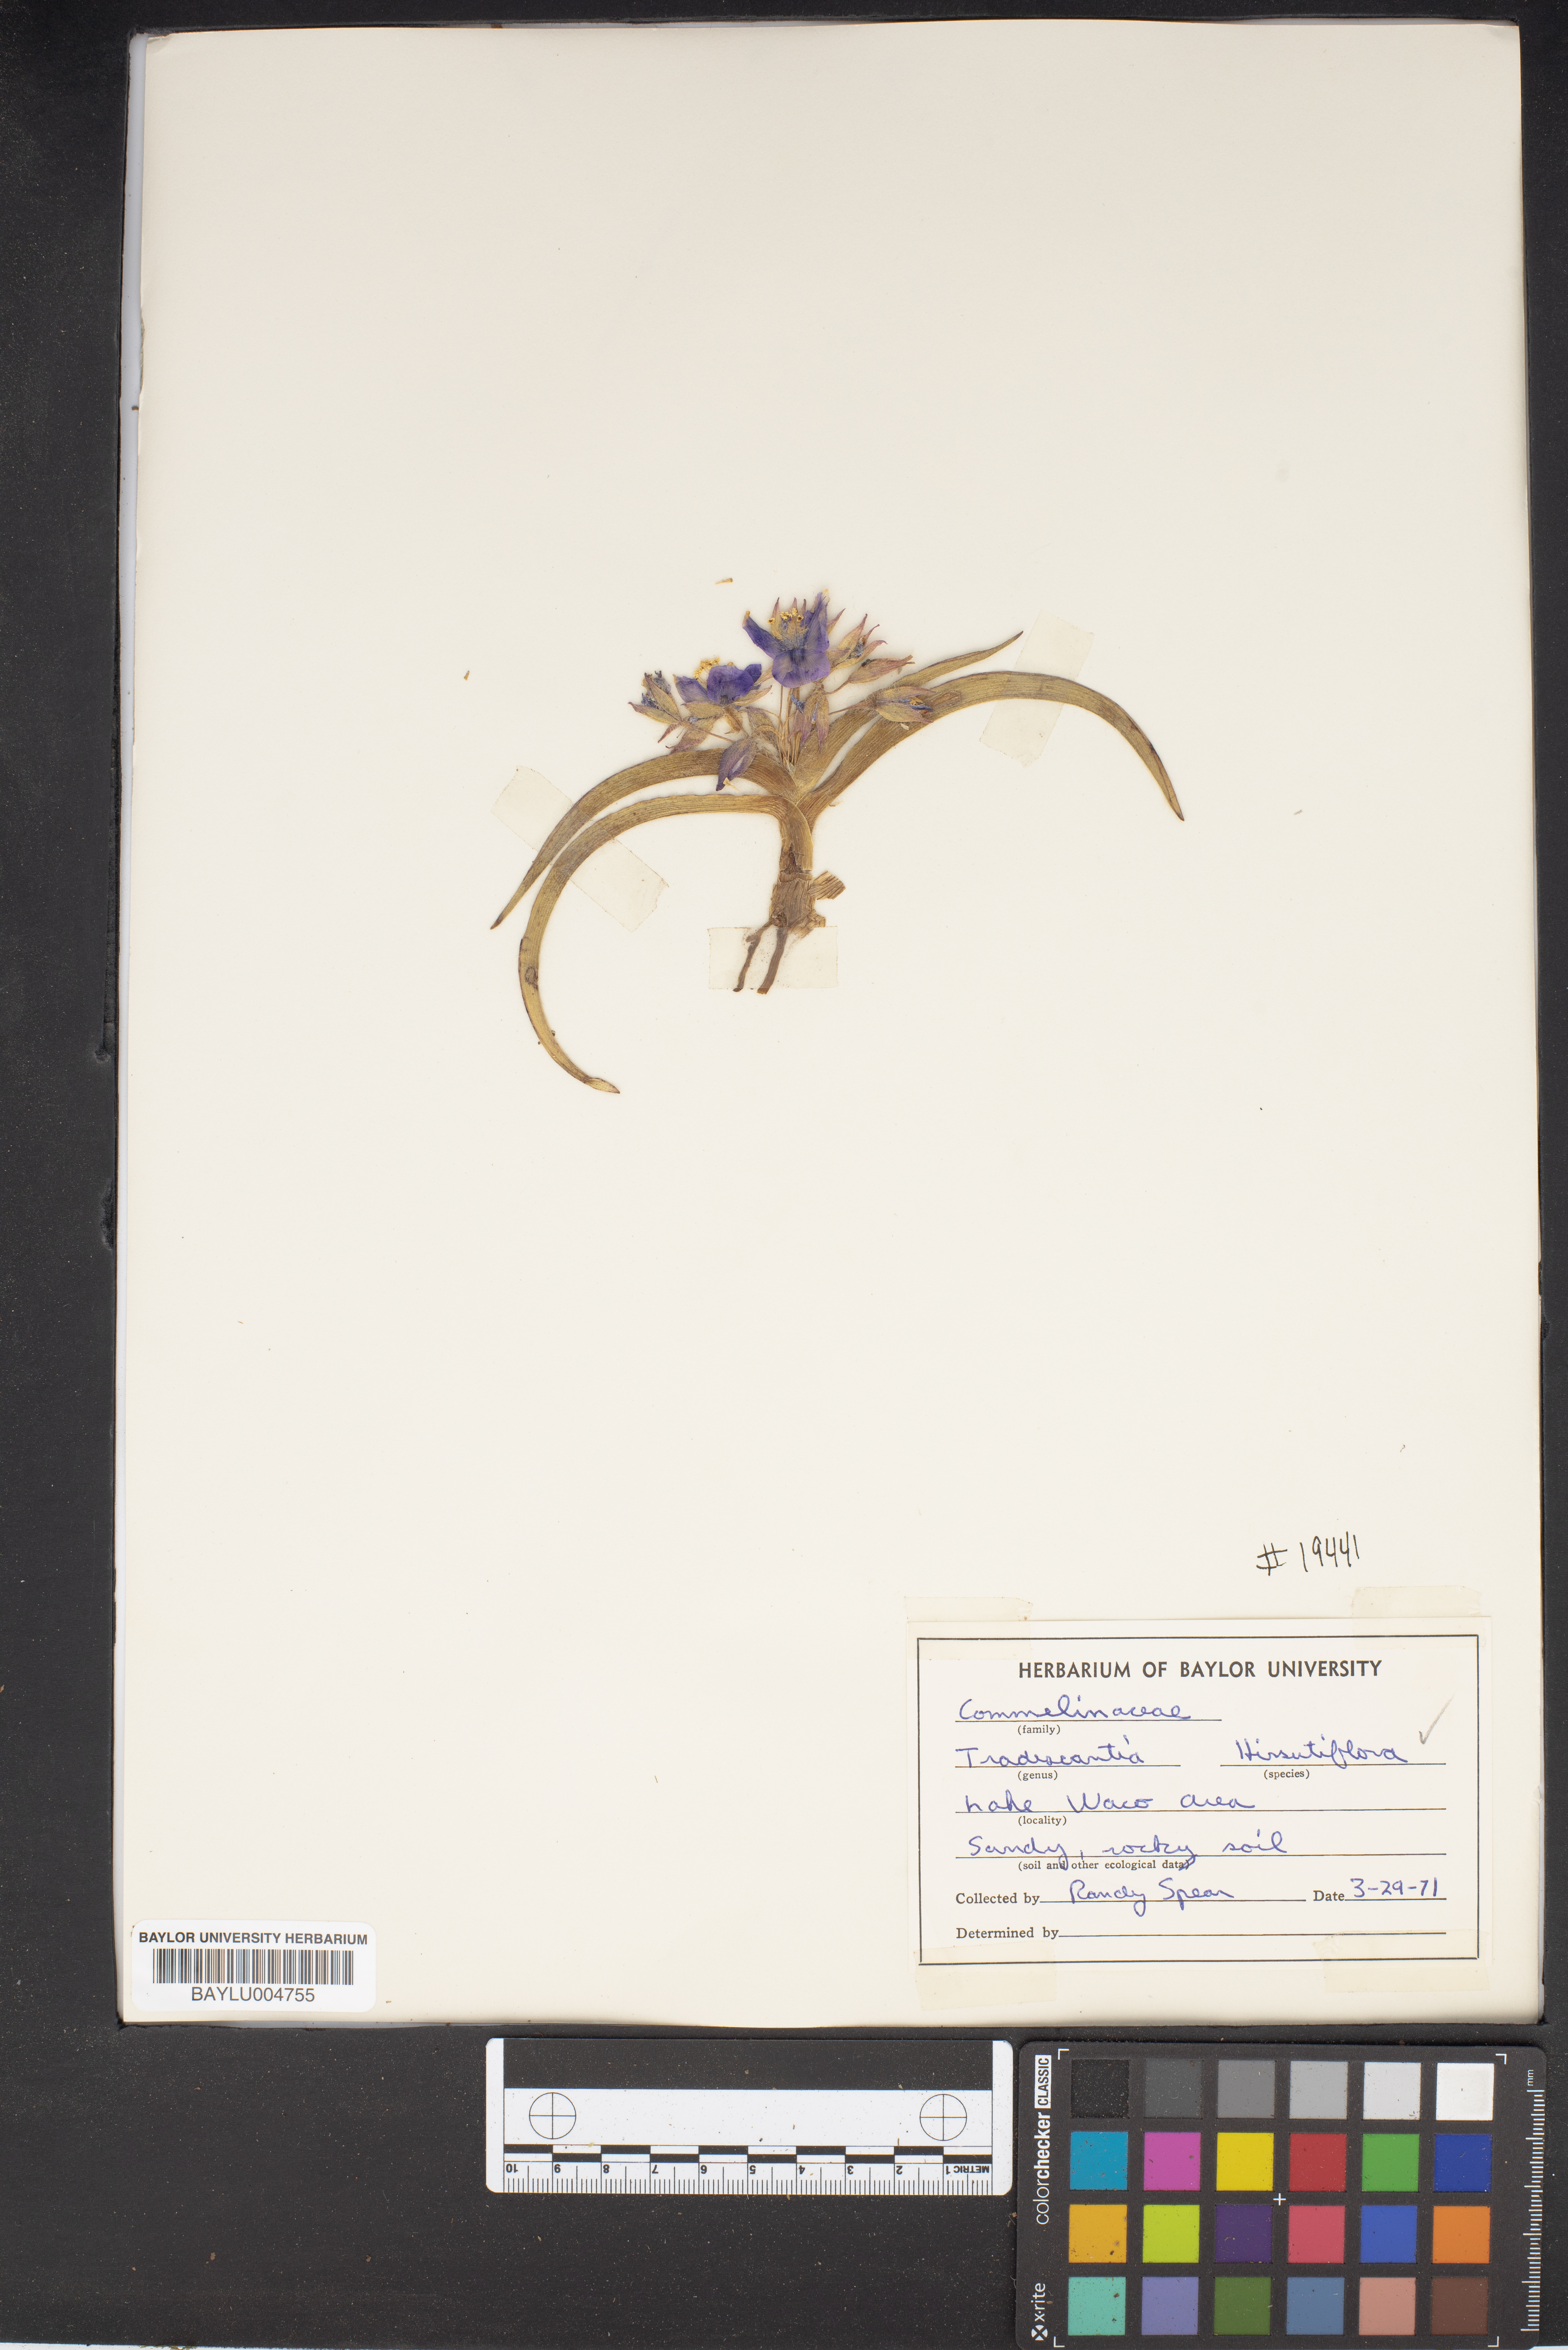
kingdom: Plantae
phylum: Tracheophyta
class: Liliopsida
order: Commelinales
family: Commelinaceae
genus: Tradescantia
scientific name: Tradescantia hirsutiflora
